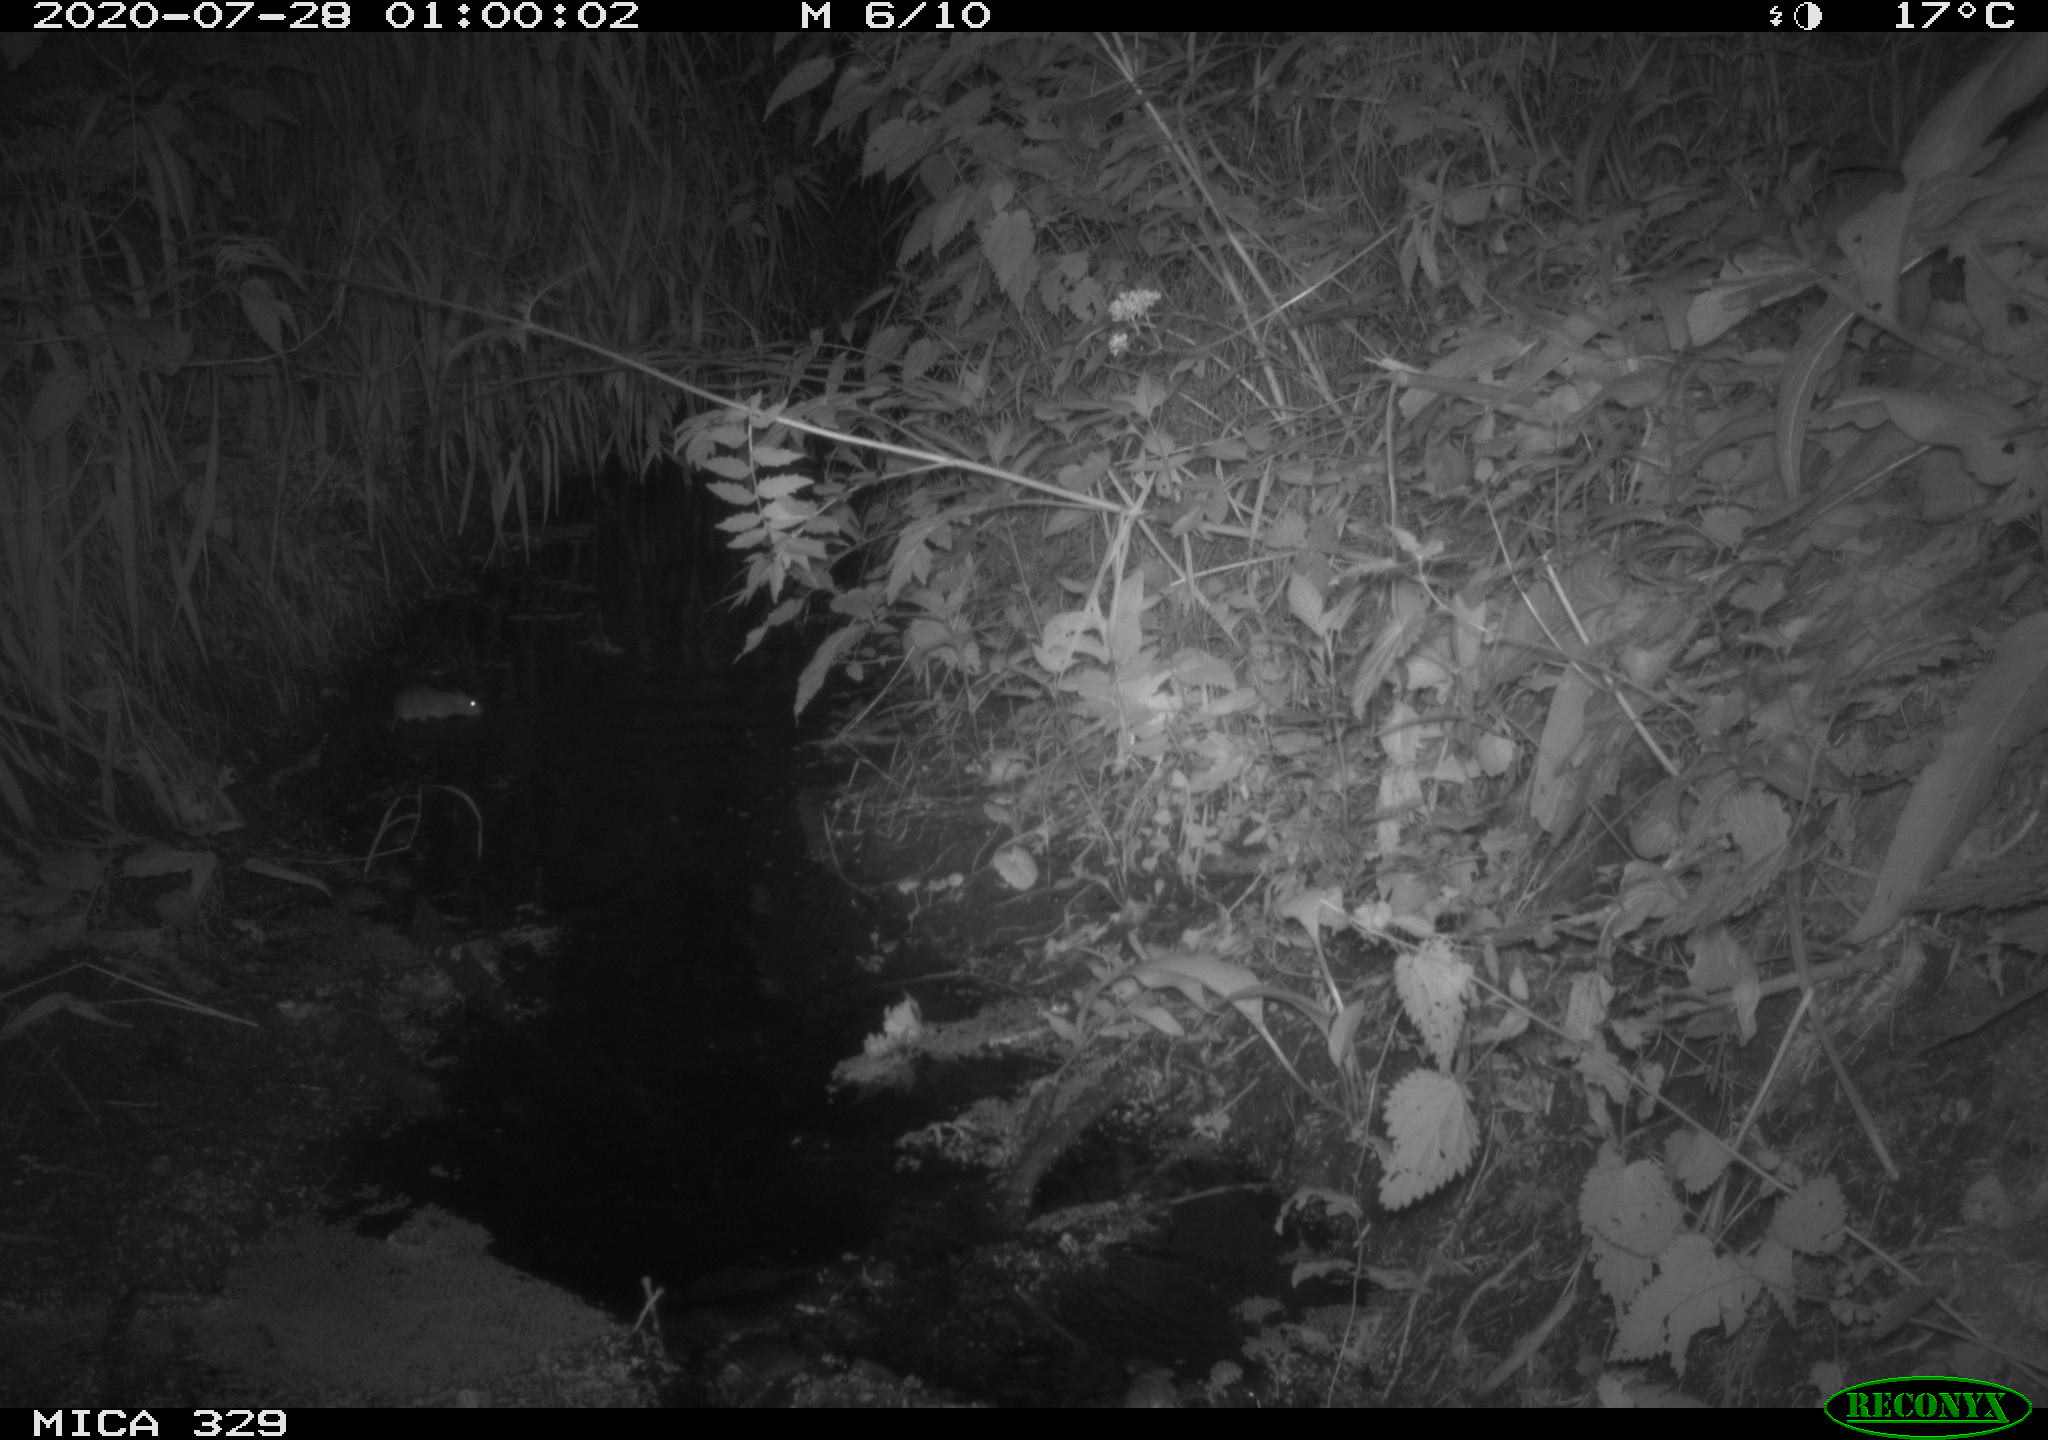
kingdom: Animalia
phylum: Chordata
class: Mammalia
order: Rodentia
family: Muridae
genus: Rattus
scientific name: Rattus norvegicus
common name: Brown rat
